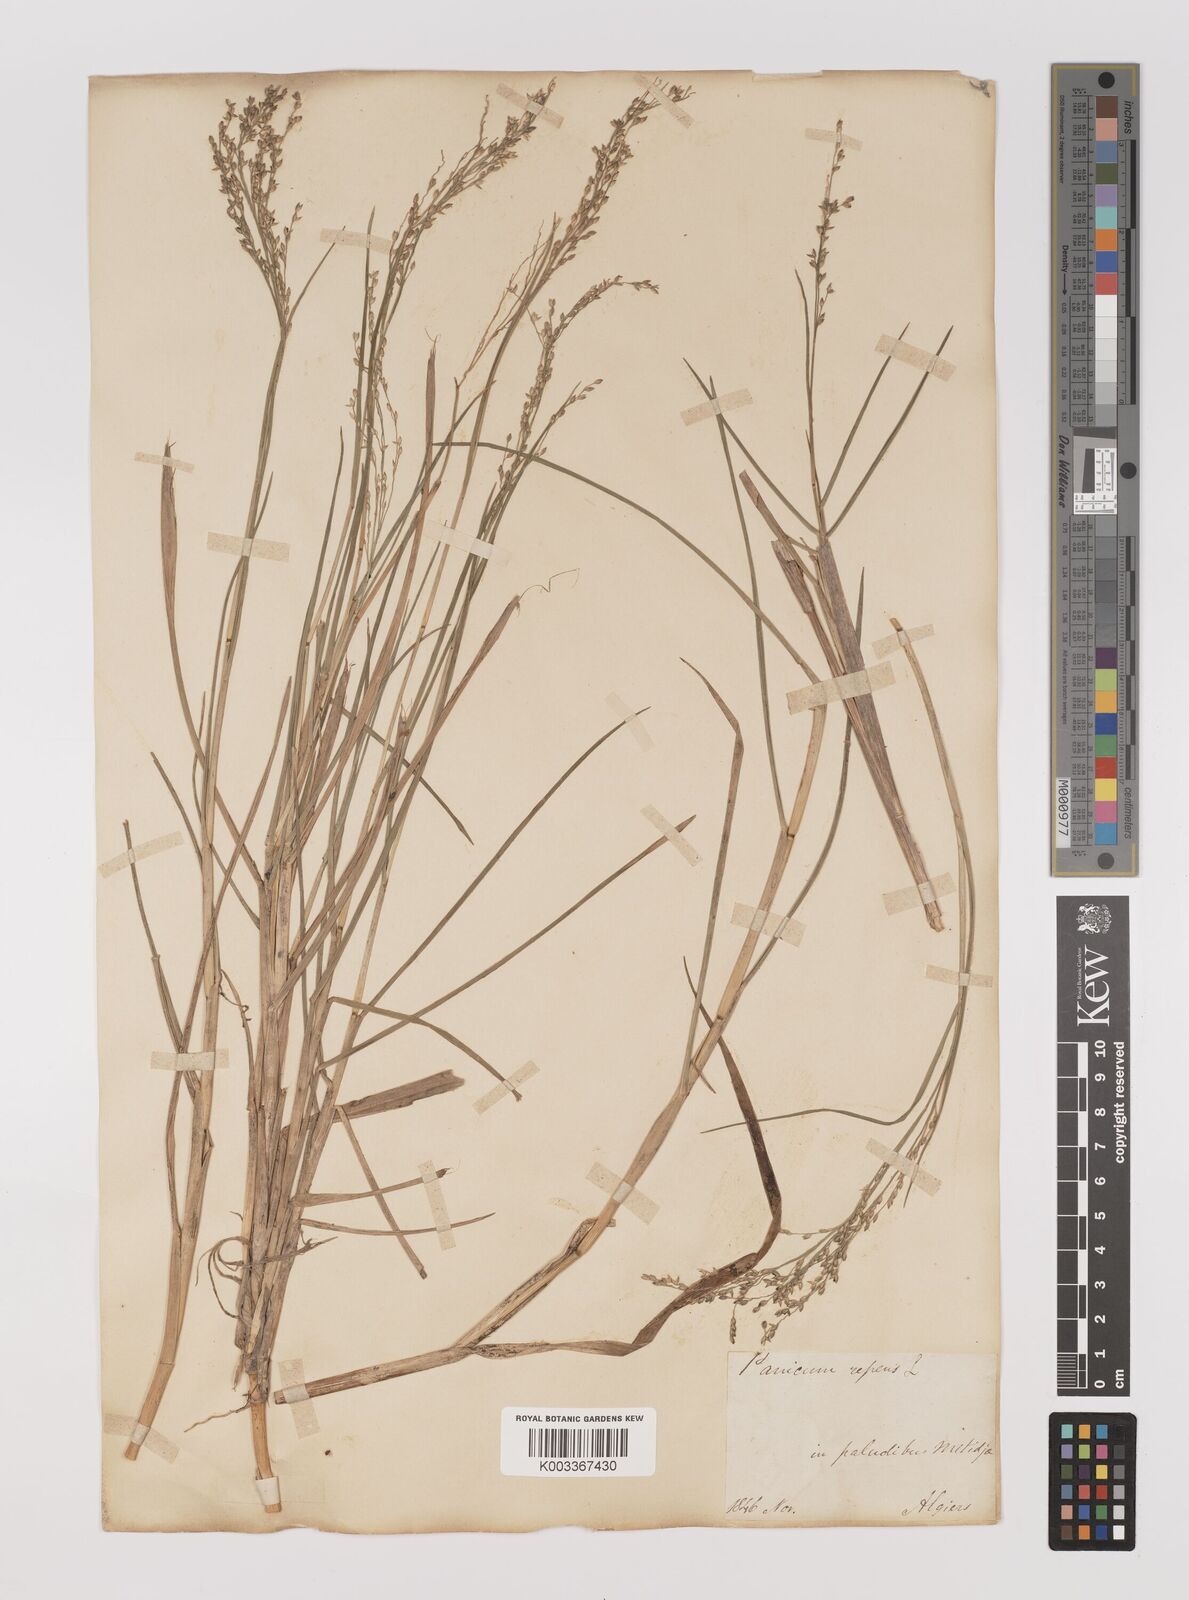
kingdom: Plantae
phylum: Tracheophyta
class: Liliopsida
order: Poales
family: Poaceae
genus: Panicum
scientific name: Panicum repens
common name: Torpedo grass
